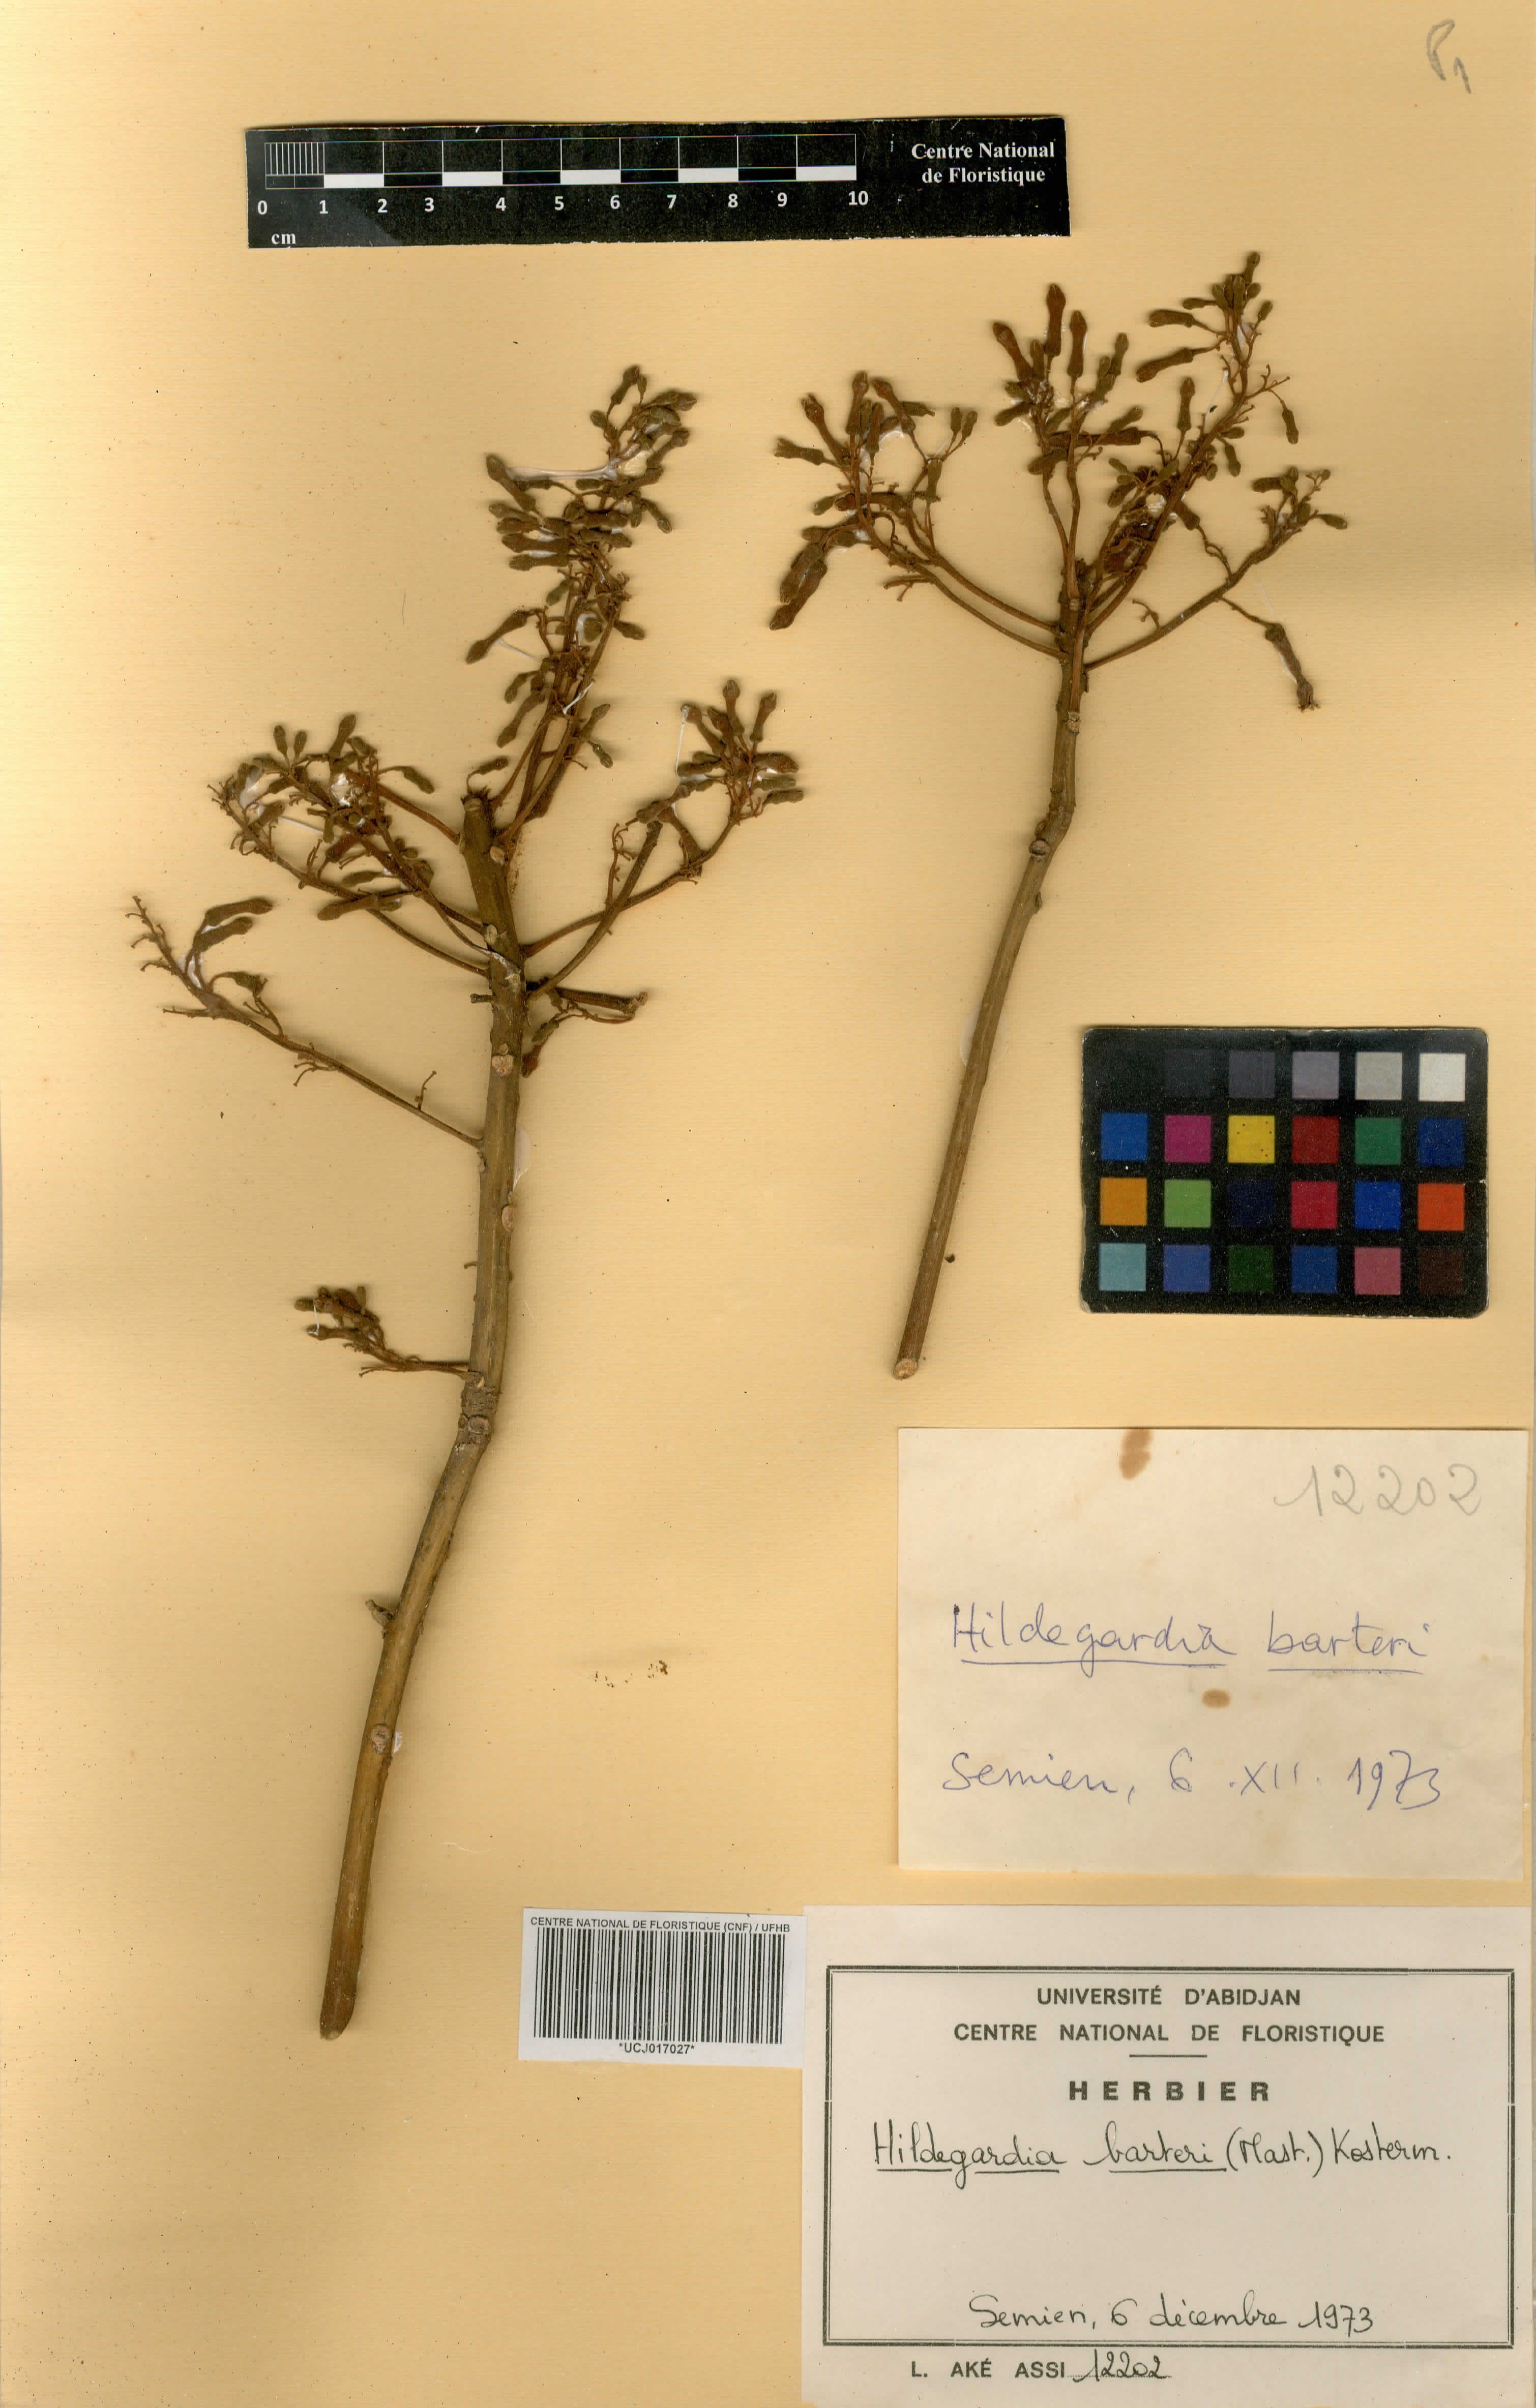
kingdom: Plantae
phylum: Tracheophyta
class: Magnoliopsida
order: Malvales
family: Malvaceae
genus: Hildegardia
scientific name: Hildegardia barteri
